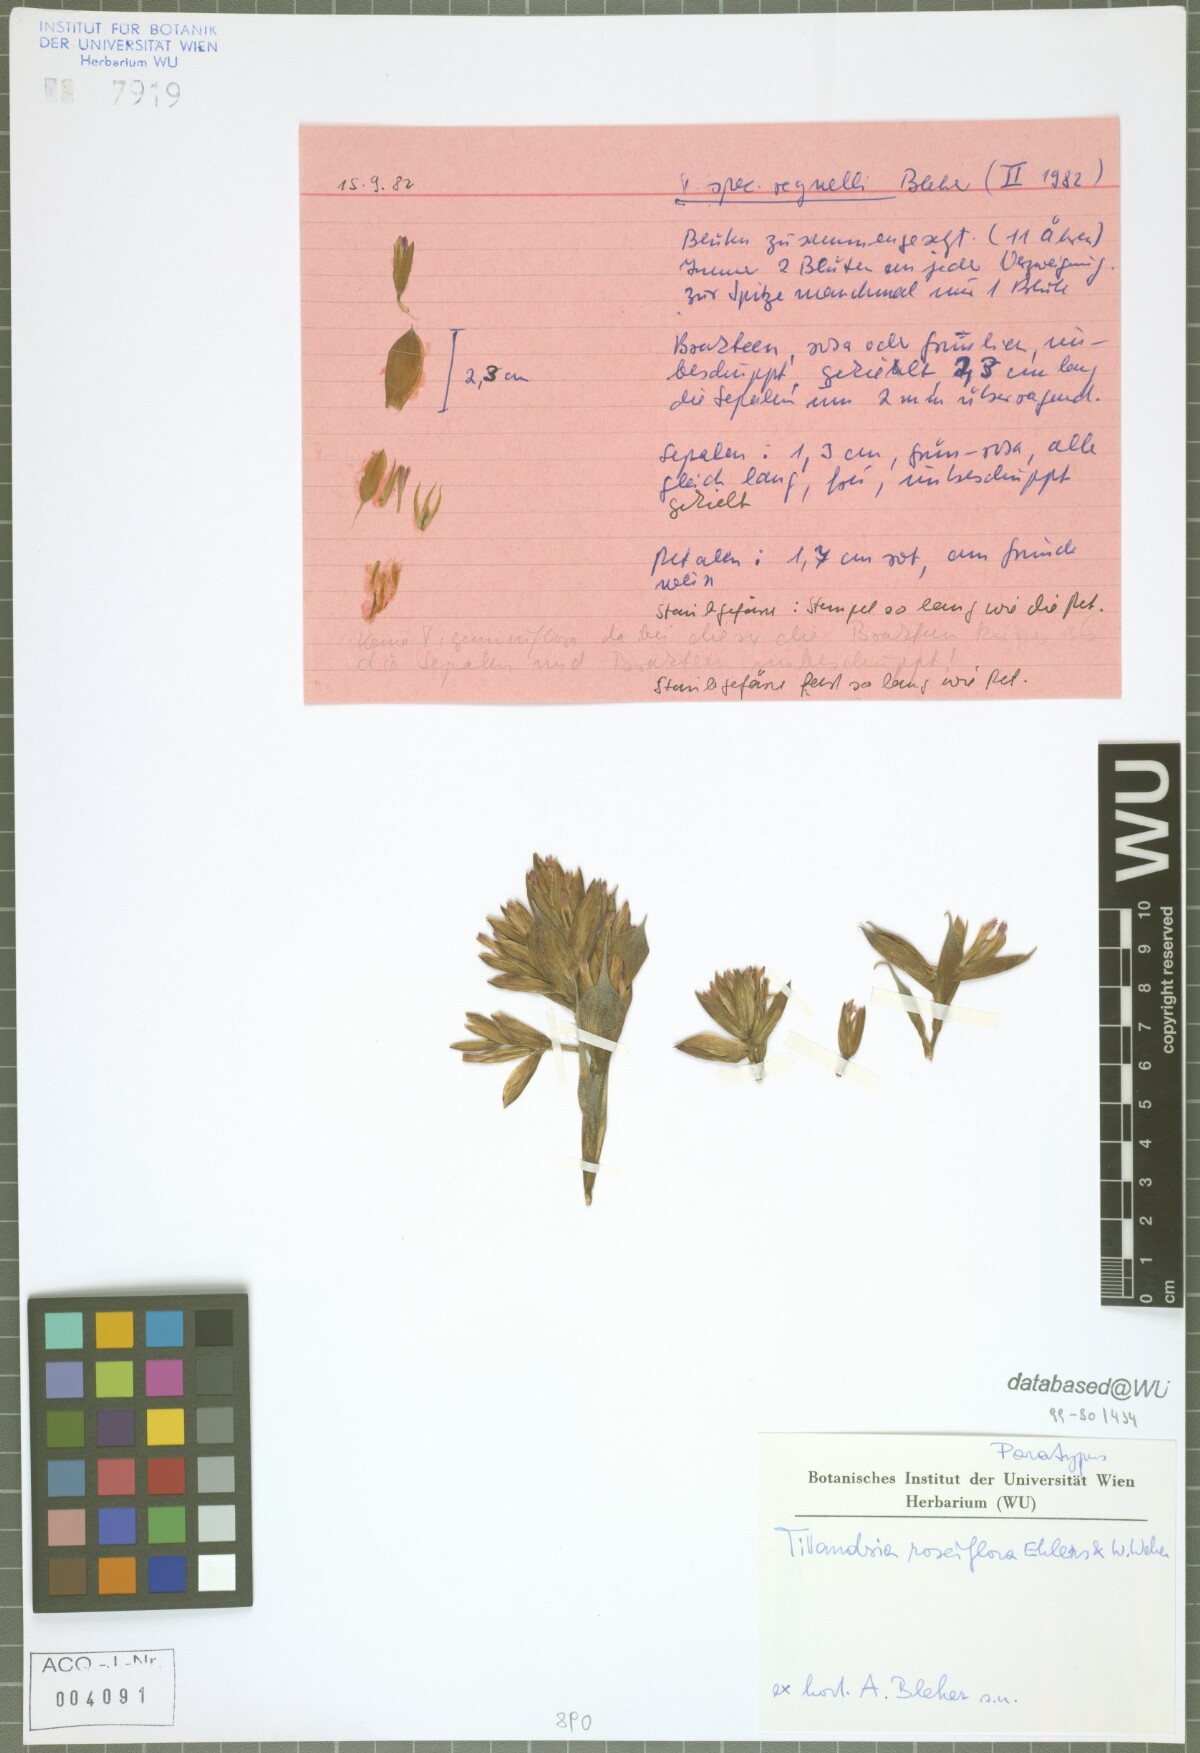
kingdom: Plantae
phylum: Tracheophyta
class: Liliopsida
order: Poales
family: Bromeliaceae
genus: Tillandsia
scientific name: Tillandsia roseiflora
